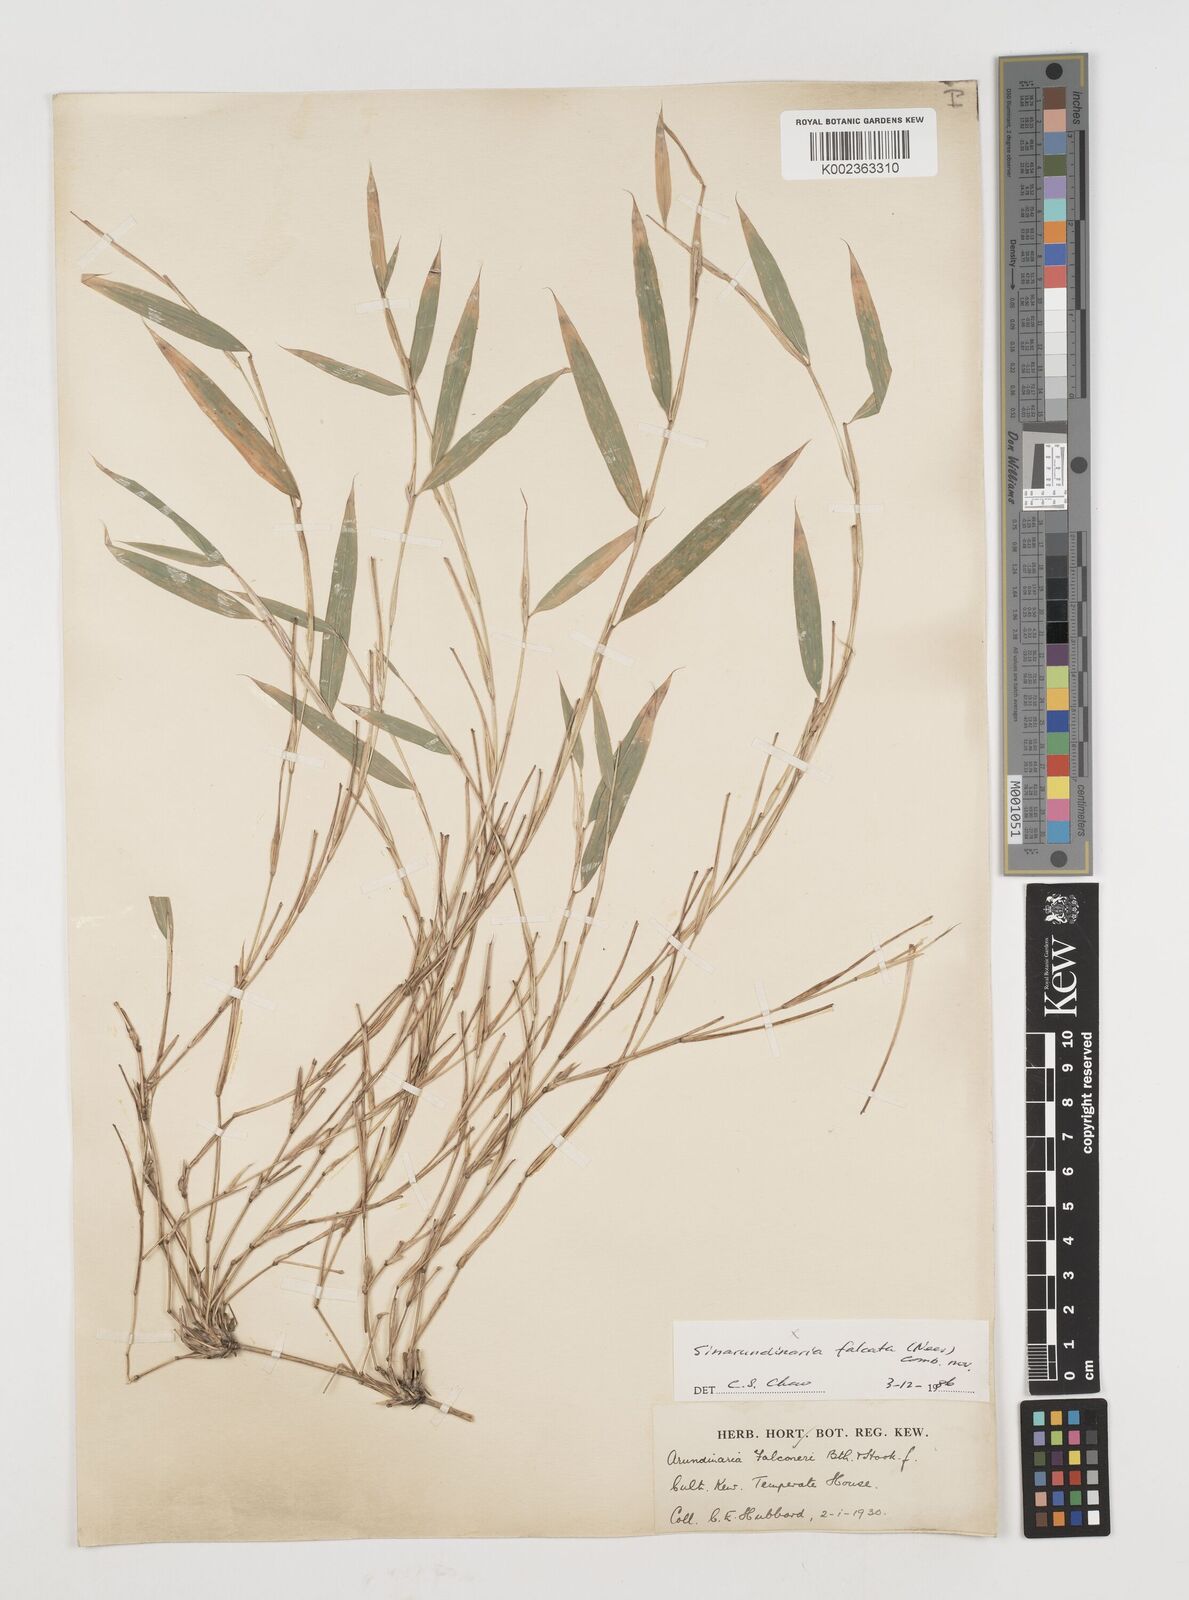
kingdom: Plantae
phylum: Tracheophyta
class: Liliopsida
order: Poales
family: Poaceae
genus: Himalayacalamus
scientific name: Himalayacalamus falconeri
